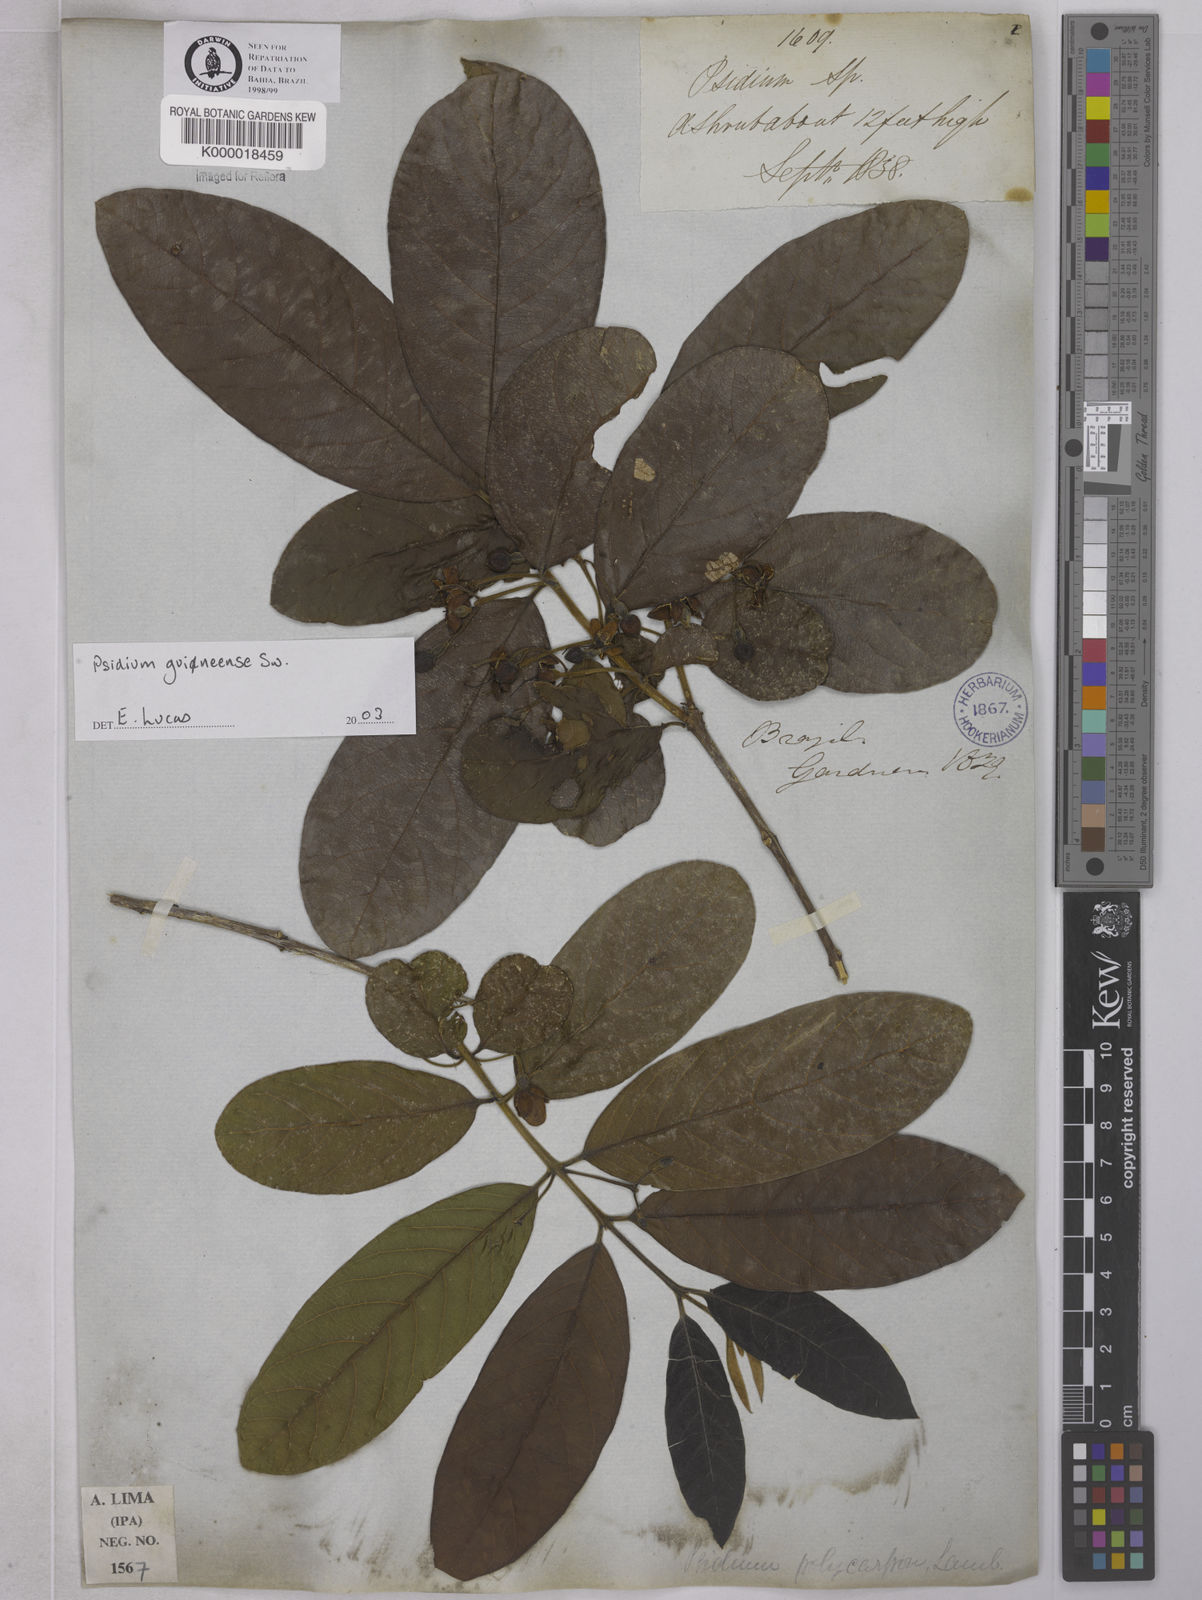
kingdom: Plantae
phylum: Tracheophyta
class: Magnoliopsida
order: Myrtales
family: Myrtaceae
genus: Psidium
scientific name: Psidium guineense
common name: Brazilian guava
